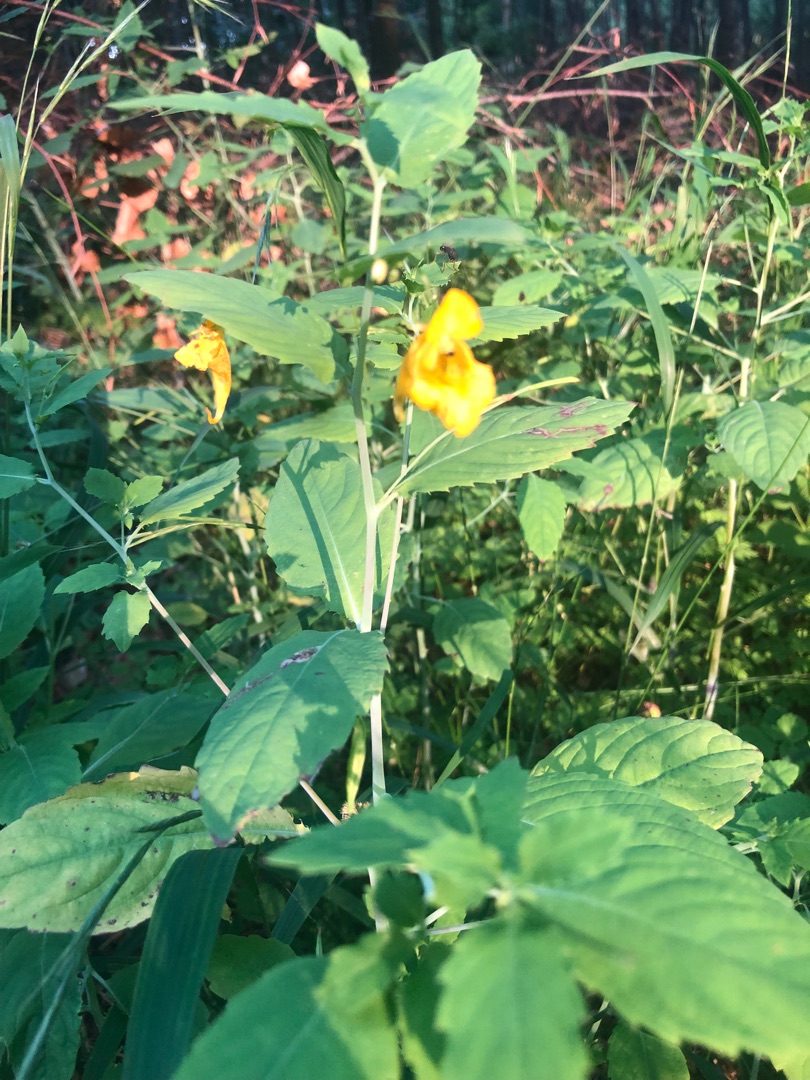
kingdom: Plantae
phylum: Tracheophyta
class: Magnoliopsida
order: Ericales
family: Balsaminaceae
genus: Impatiens
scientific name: Impatiens noli-tangere
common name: Spring-balsamin
